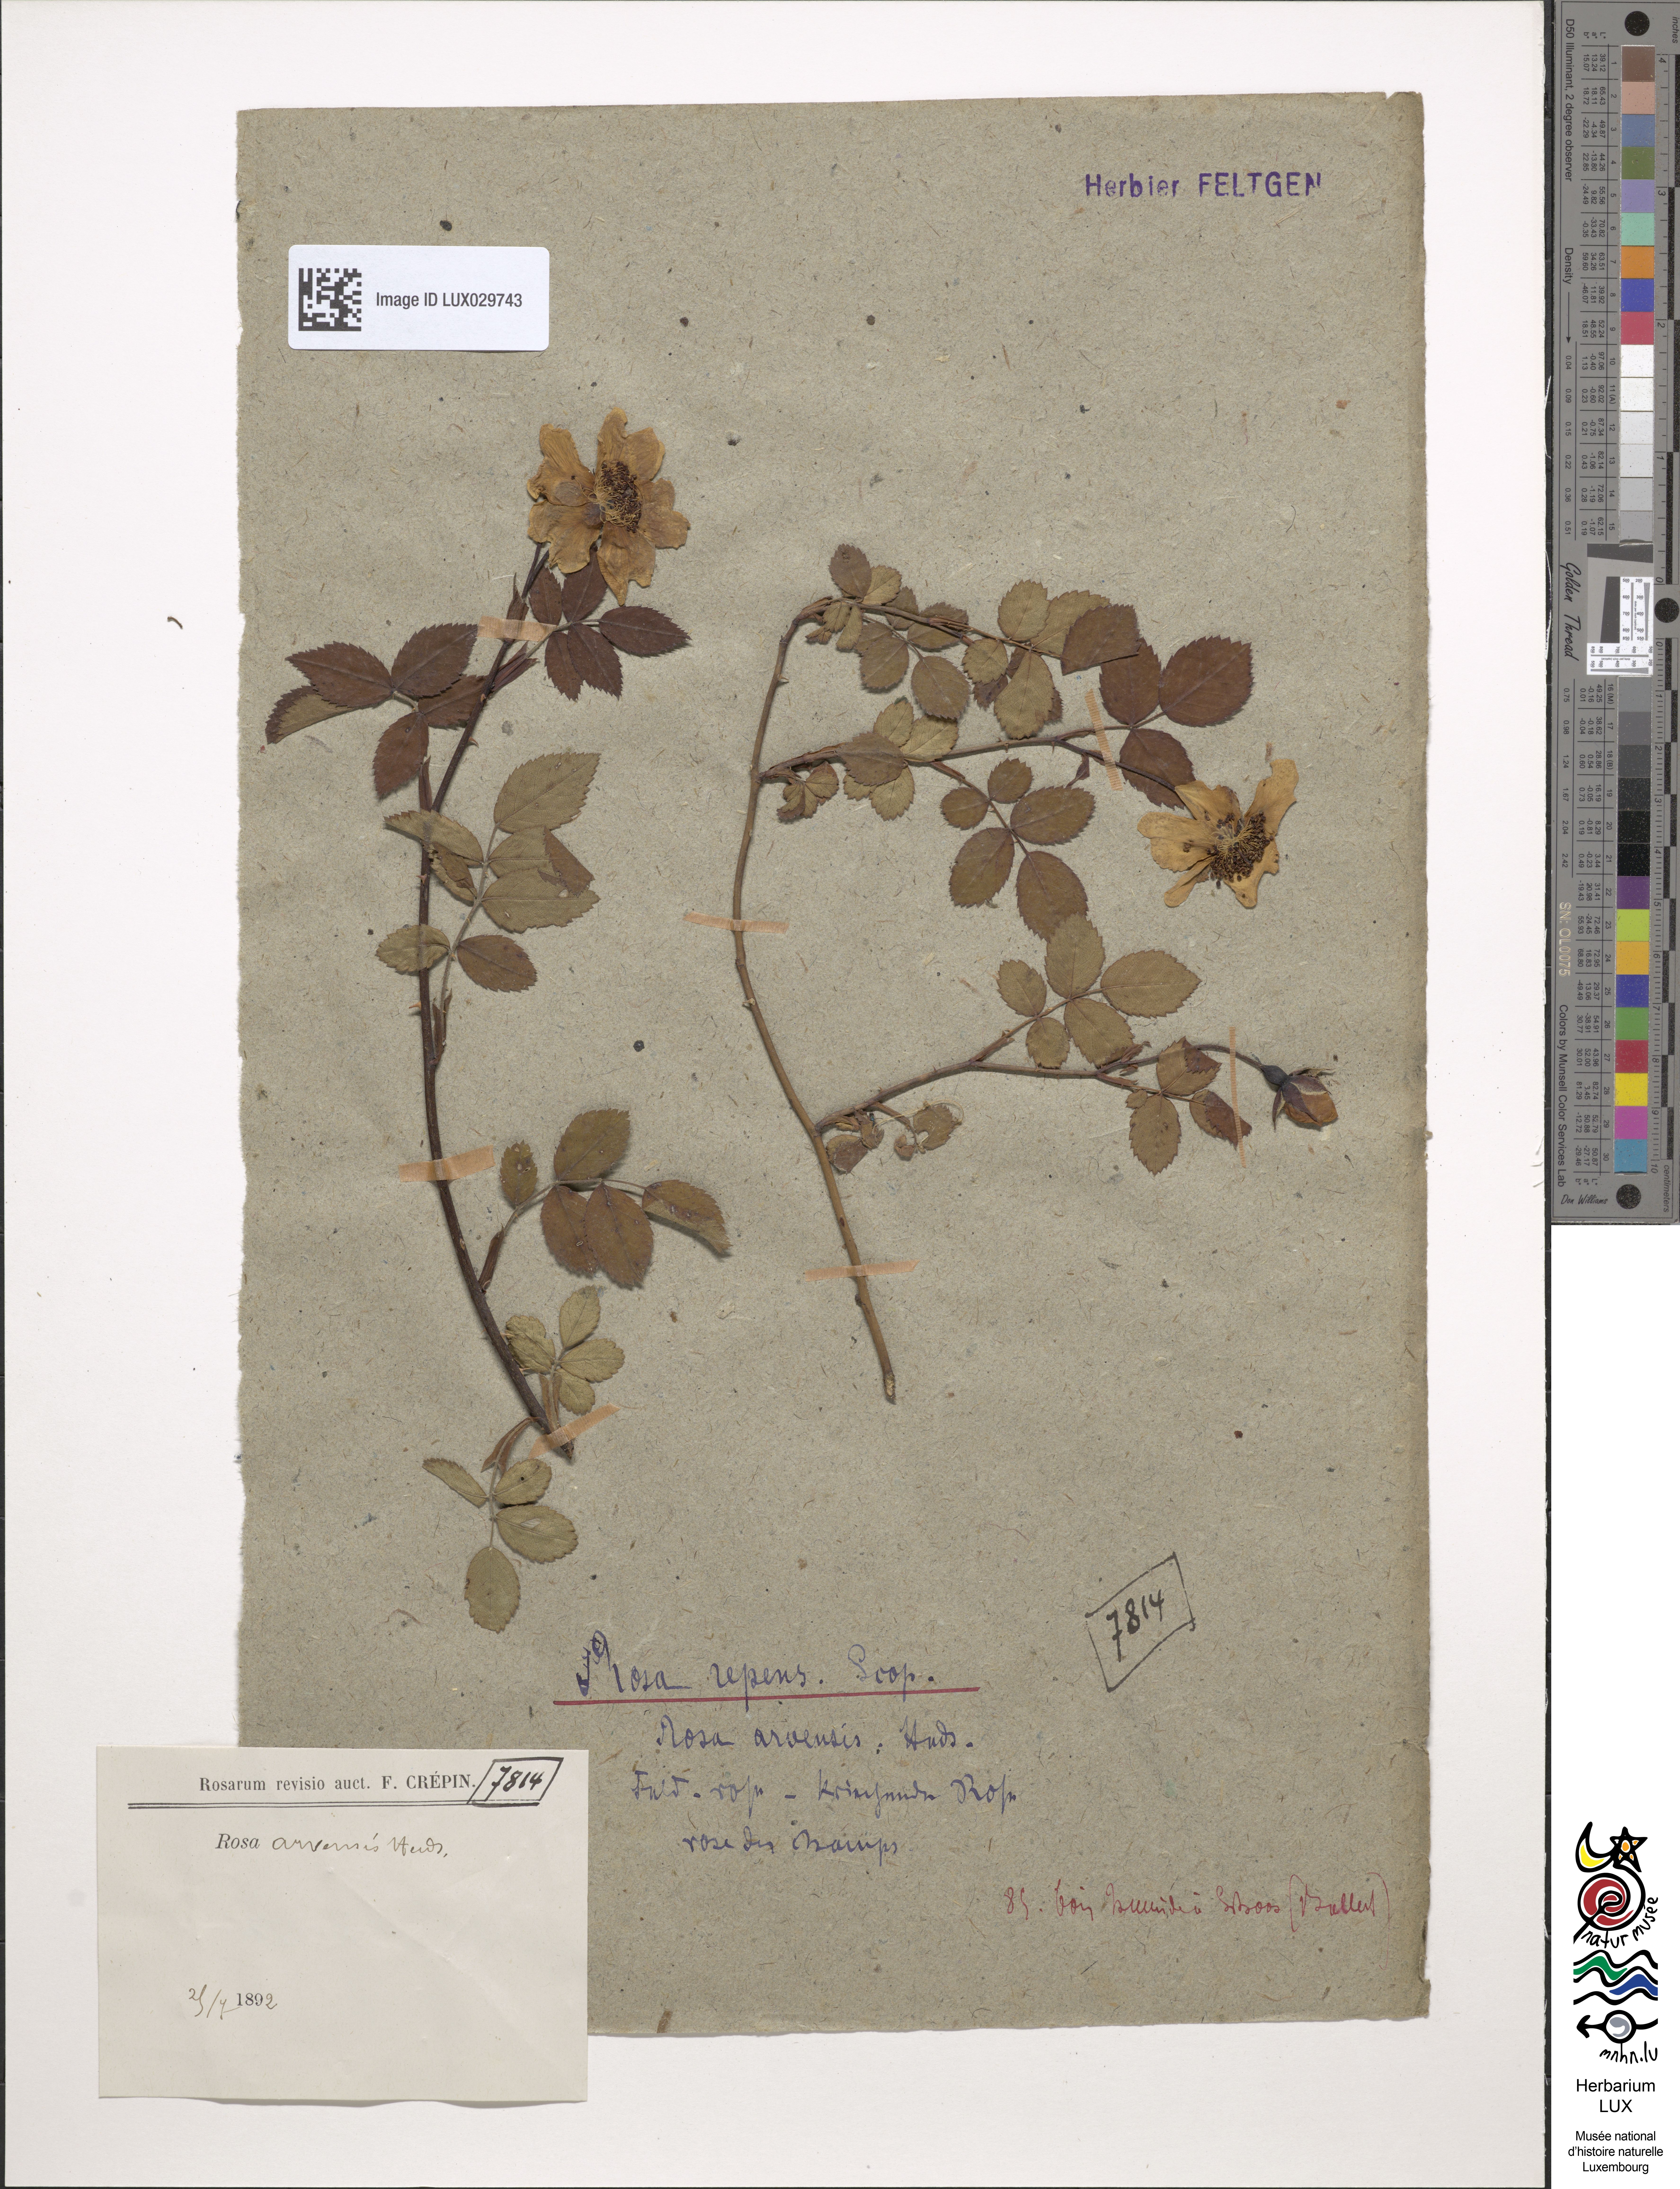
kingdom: Plantae
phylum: Tracheophyta
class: Magnoliopsida
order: Rosales
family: Rosaceae
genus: Rosa
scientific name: Rosa arvensis
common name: Field rose
